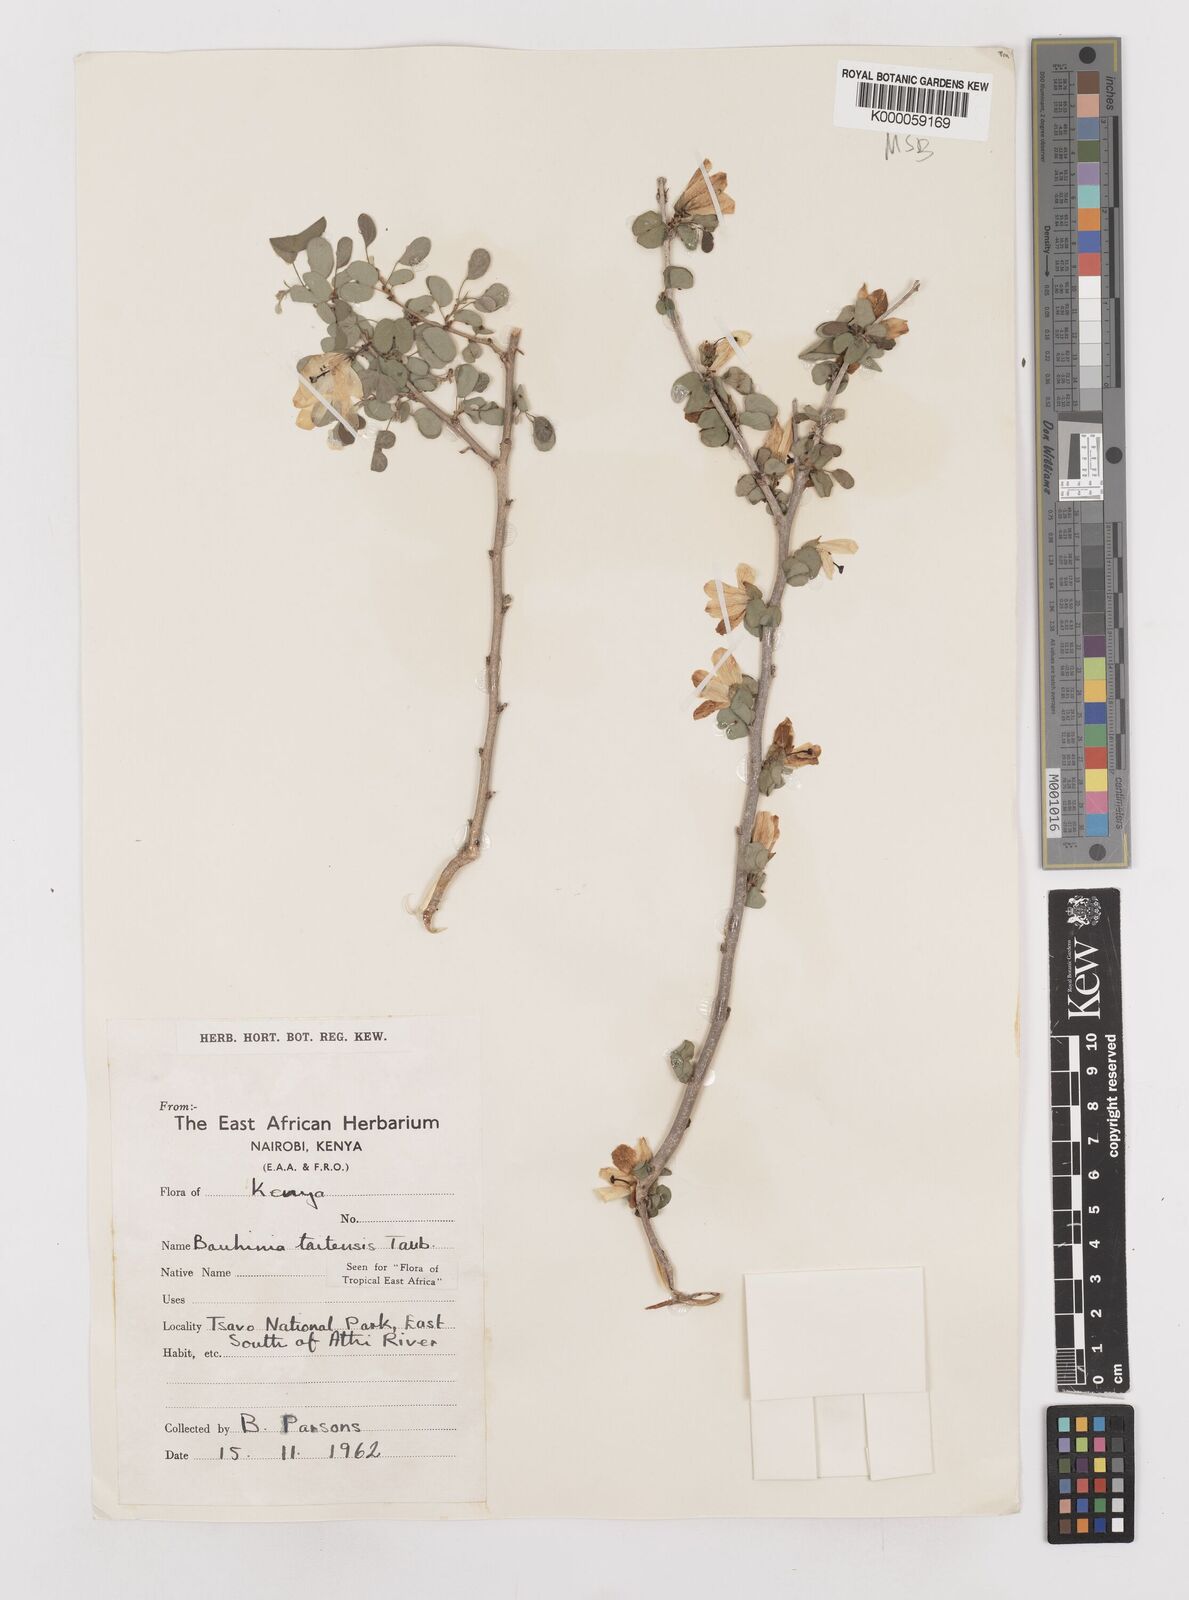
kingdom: Plantae
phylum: Tracheophyta
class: Magnoliopsida
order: Fabales
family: Fabaceae
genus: Bauhinia
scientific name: Bauhinia taitensis
